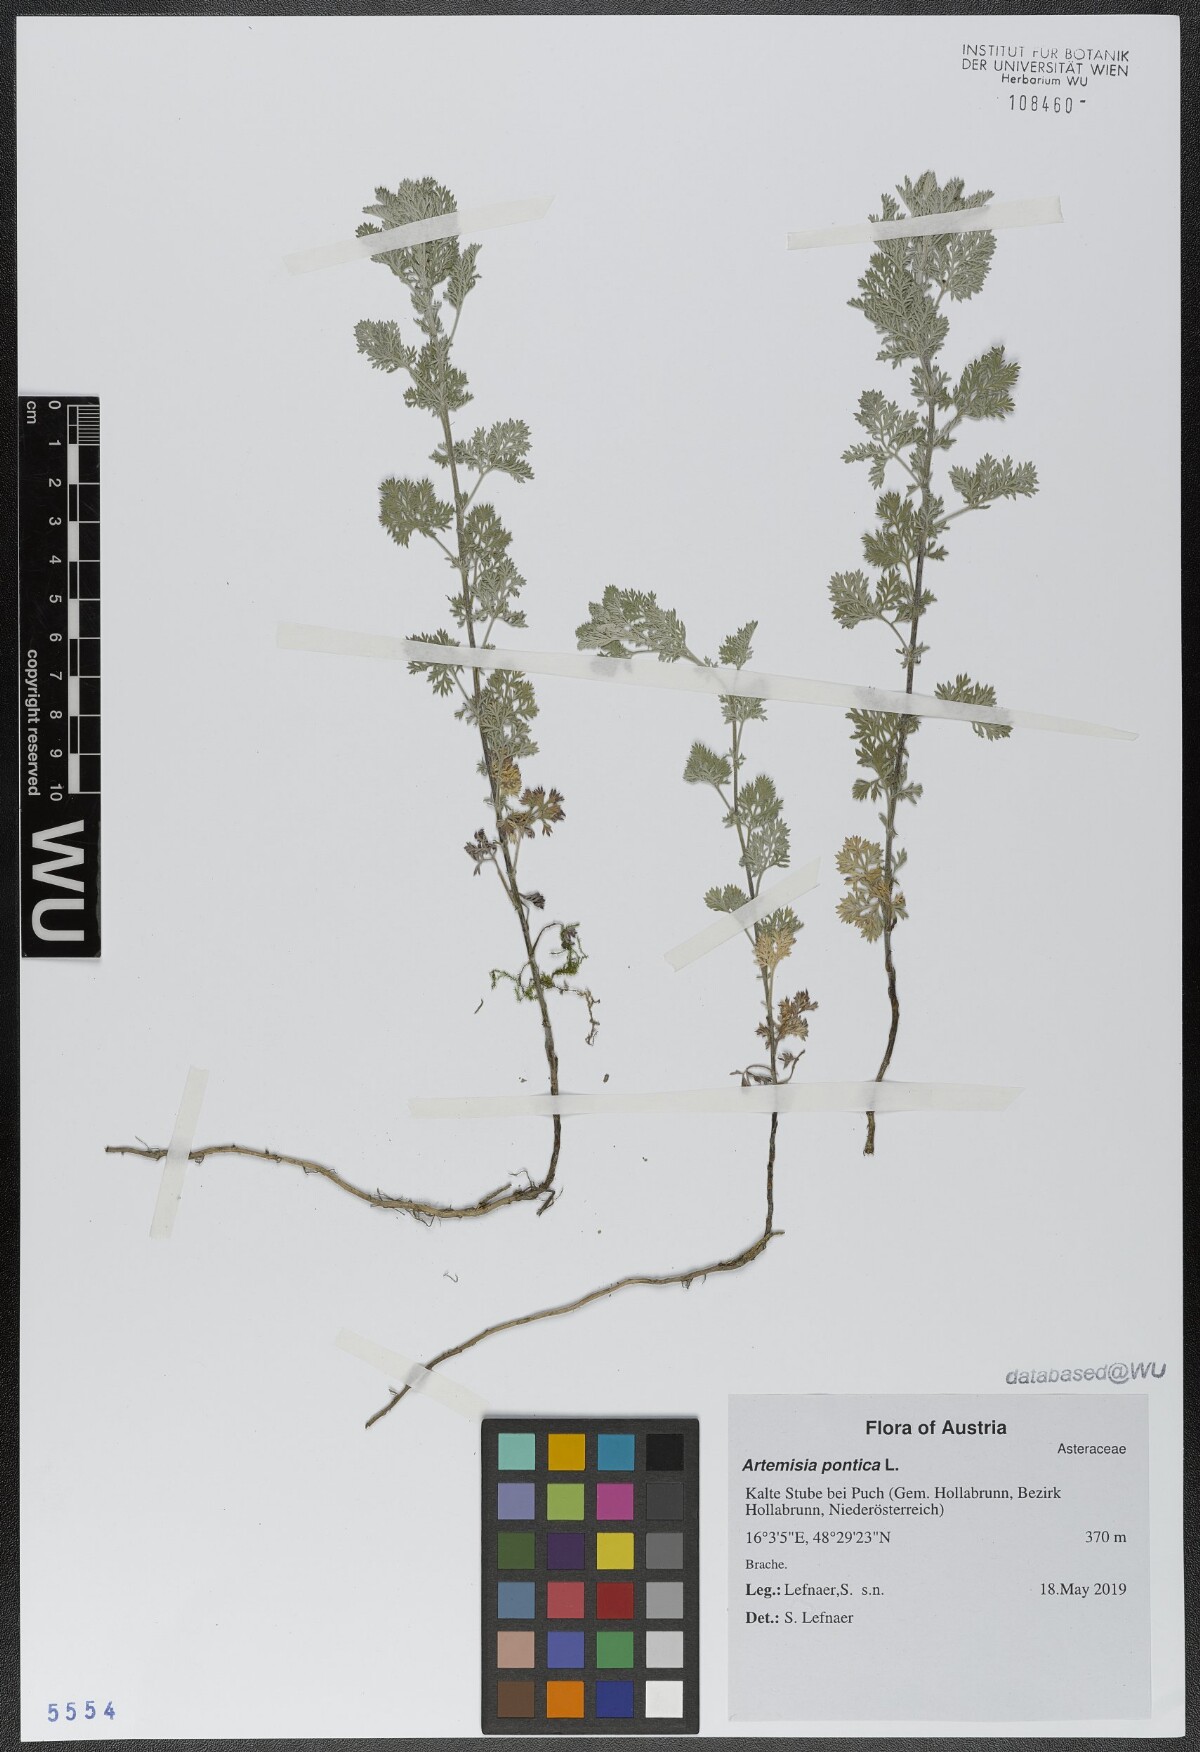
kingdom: Plantae
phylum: Tracheophyta
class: Magnoliopsida
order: Asterales
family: Asteraceae
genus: Artemisia
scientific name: Artemisia pontica
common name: Roman wormwood
